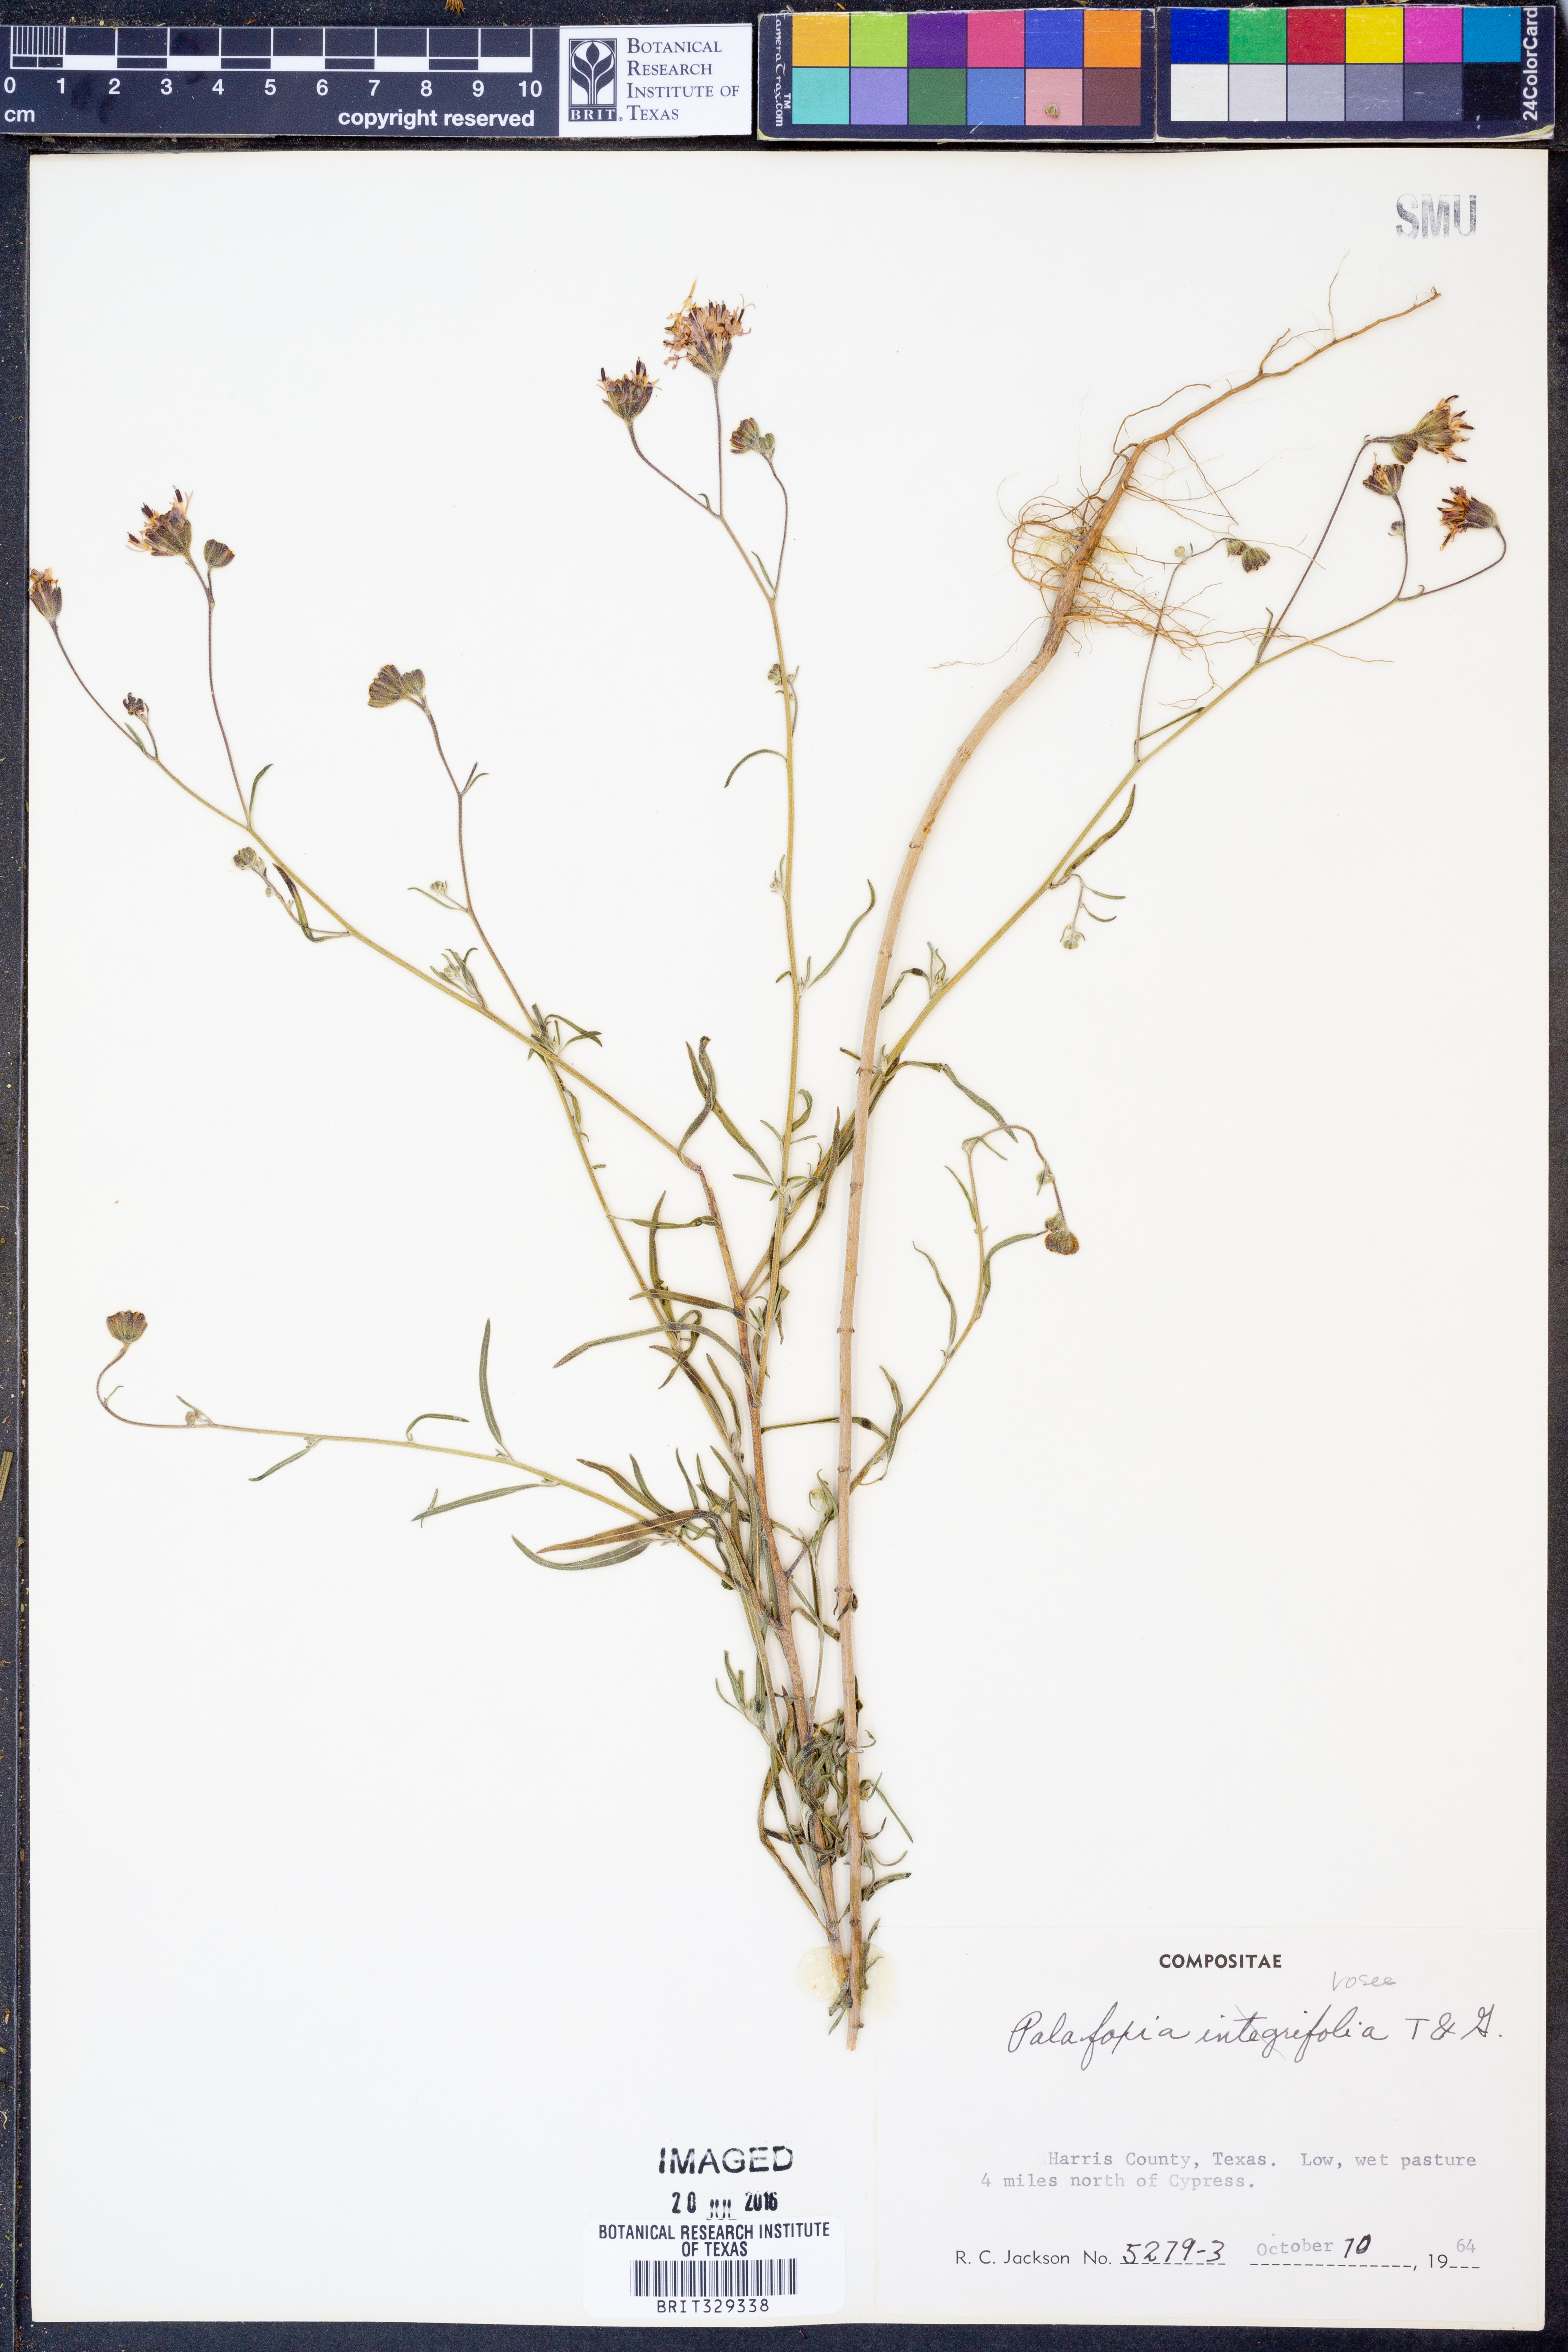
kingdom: Plantae
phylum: Tracheophyta
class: Magnoliopsida
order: Asterales
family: Asteraceae
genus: Palafoxia
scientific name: Palafoxia rosea
